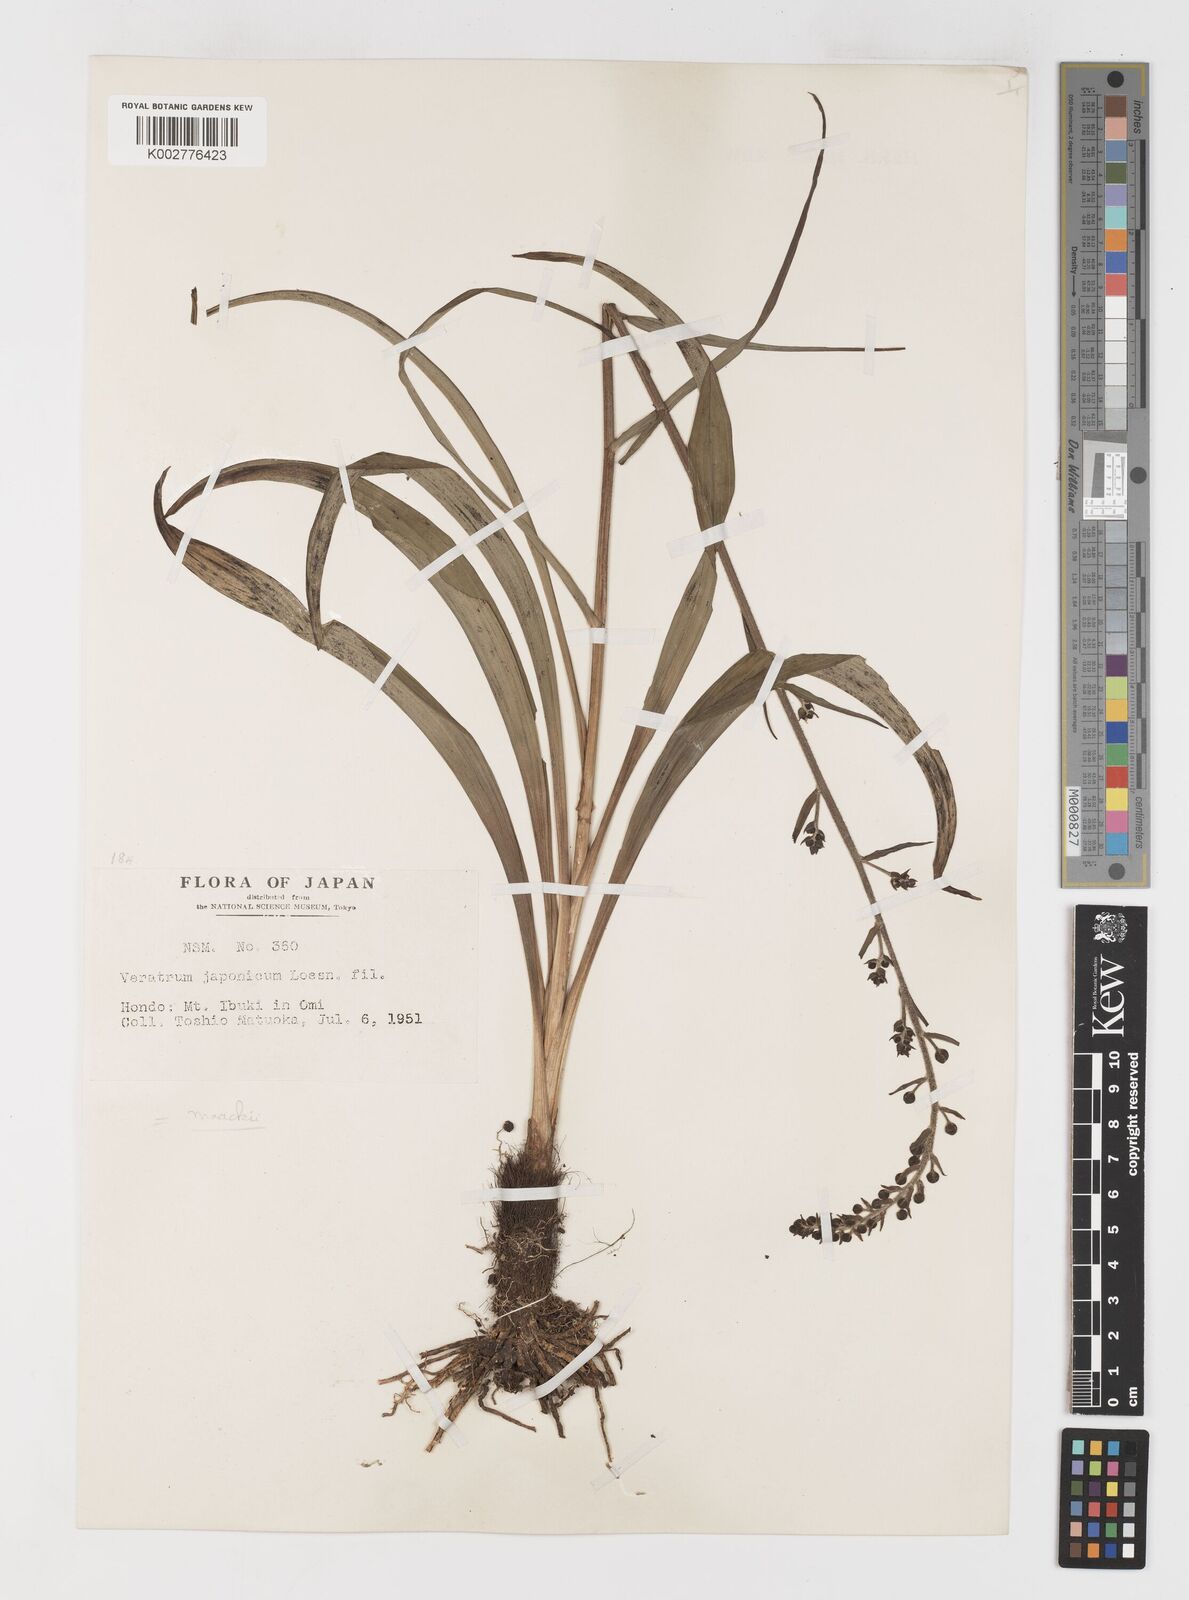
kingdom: Plantae
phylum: Tracheophyta
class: Liliopsida
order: Liliales
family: Melanthiaceae
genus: Veratrum
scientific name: Veratrum maackii
